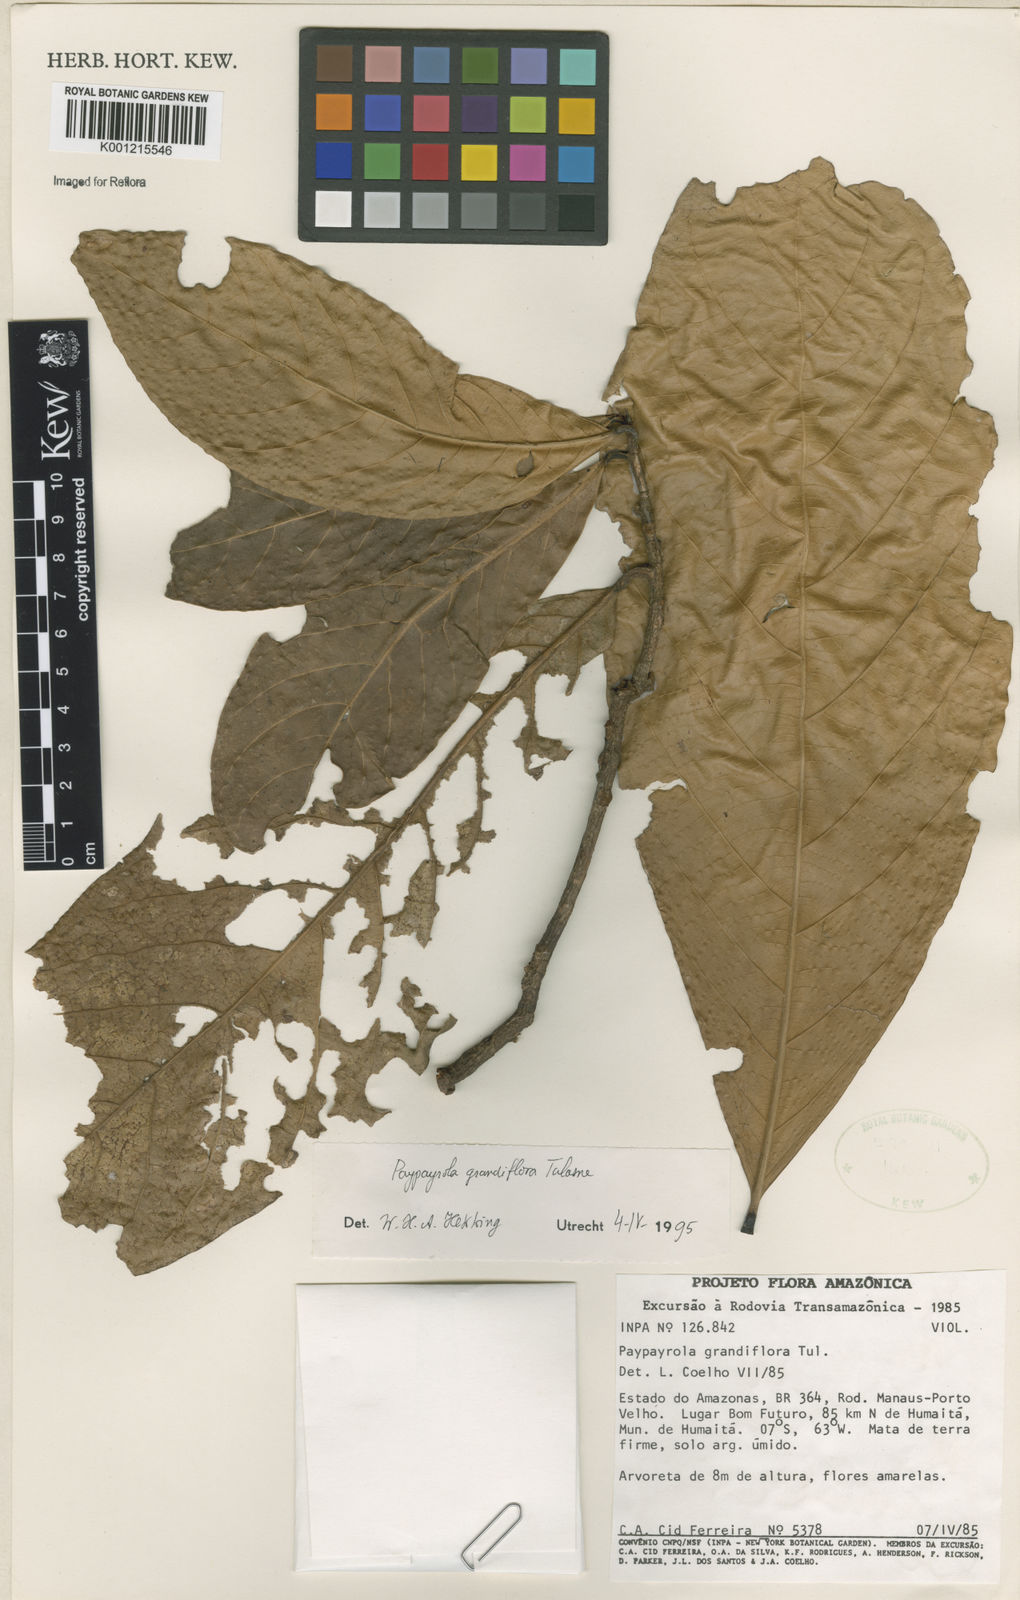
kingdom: Plantae
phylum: Tracheophyta
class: Magnoliopsida
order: Malpighiales
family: Violaceae
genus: Paypayrola
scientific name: Paypayrola grandiflora
